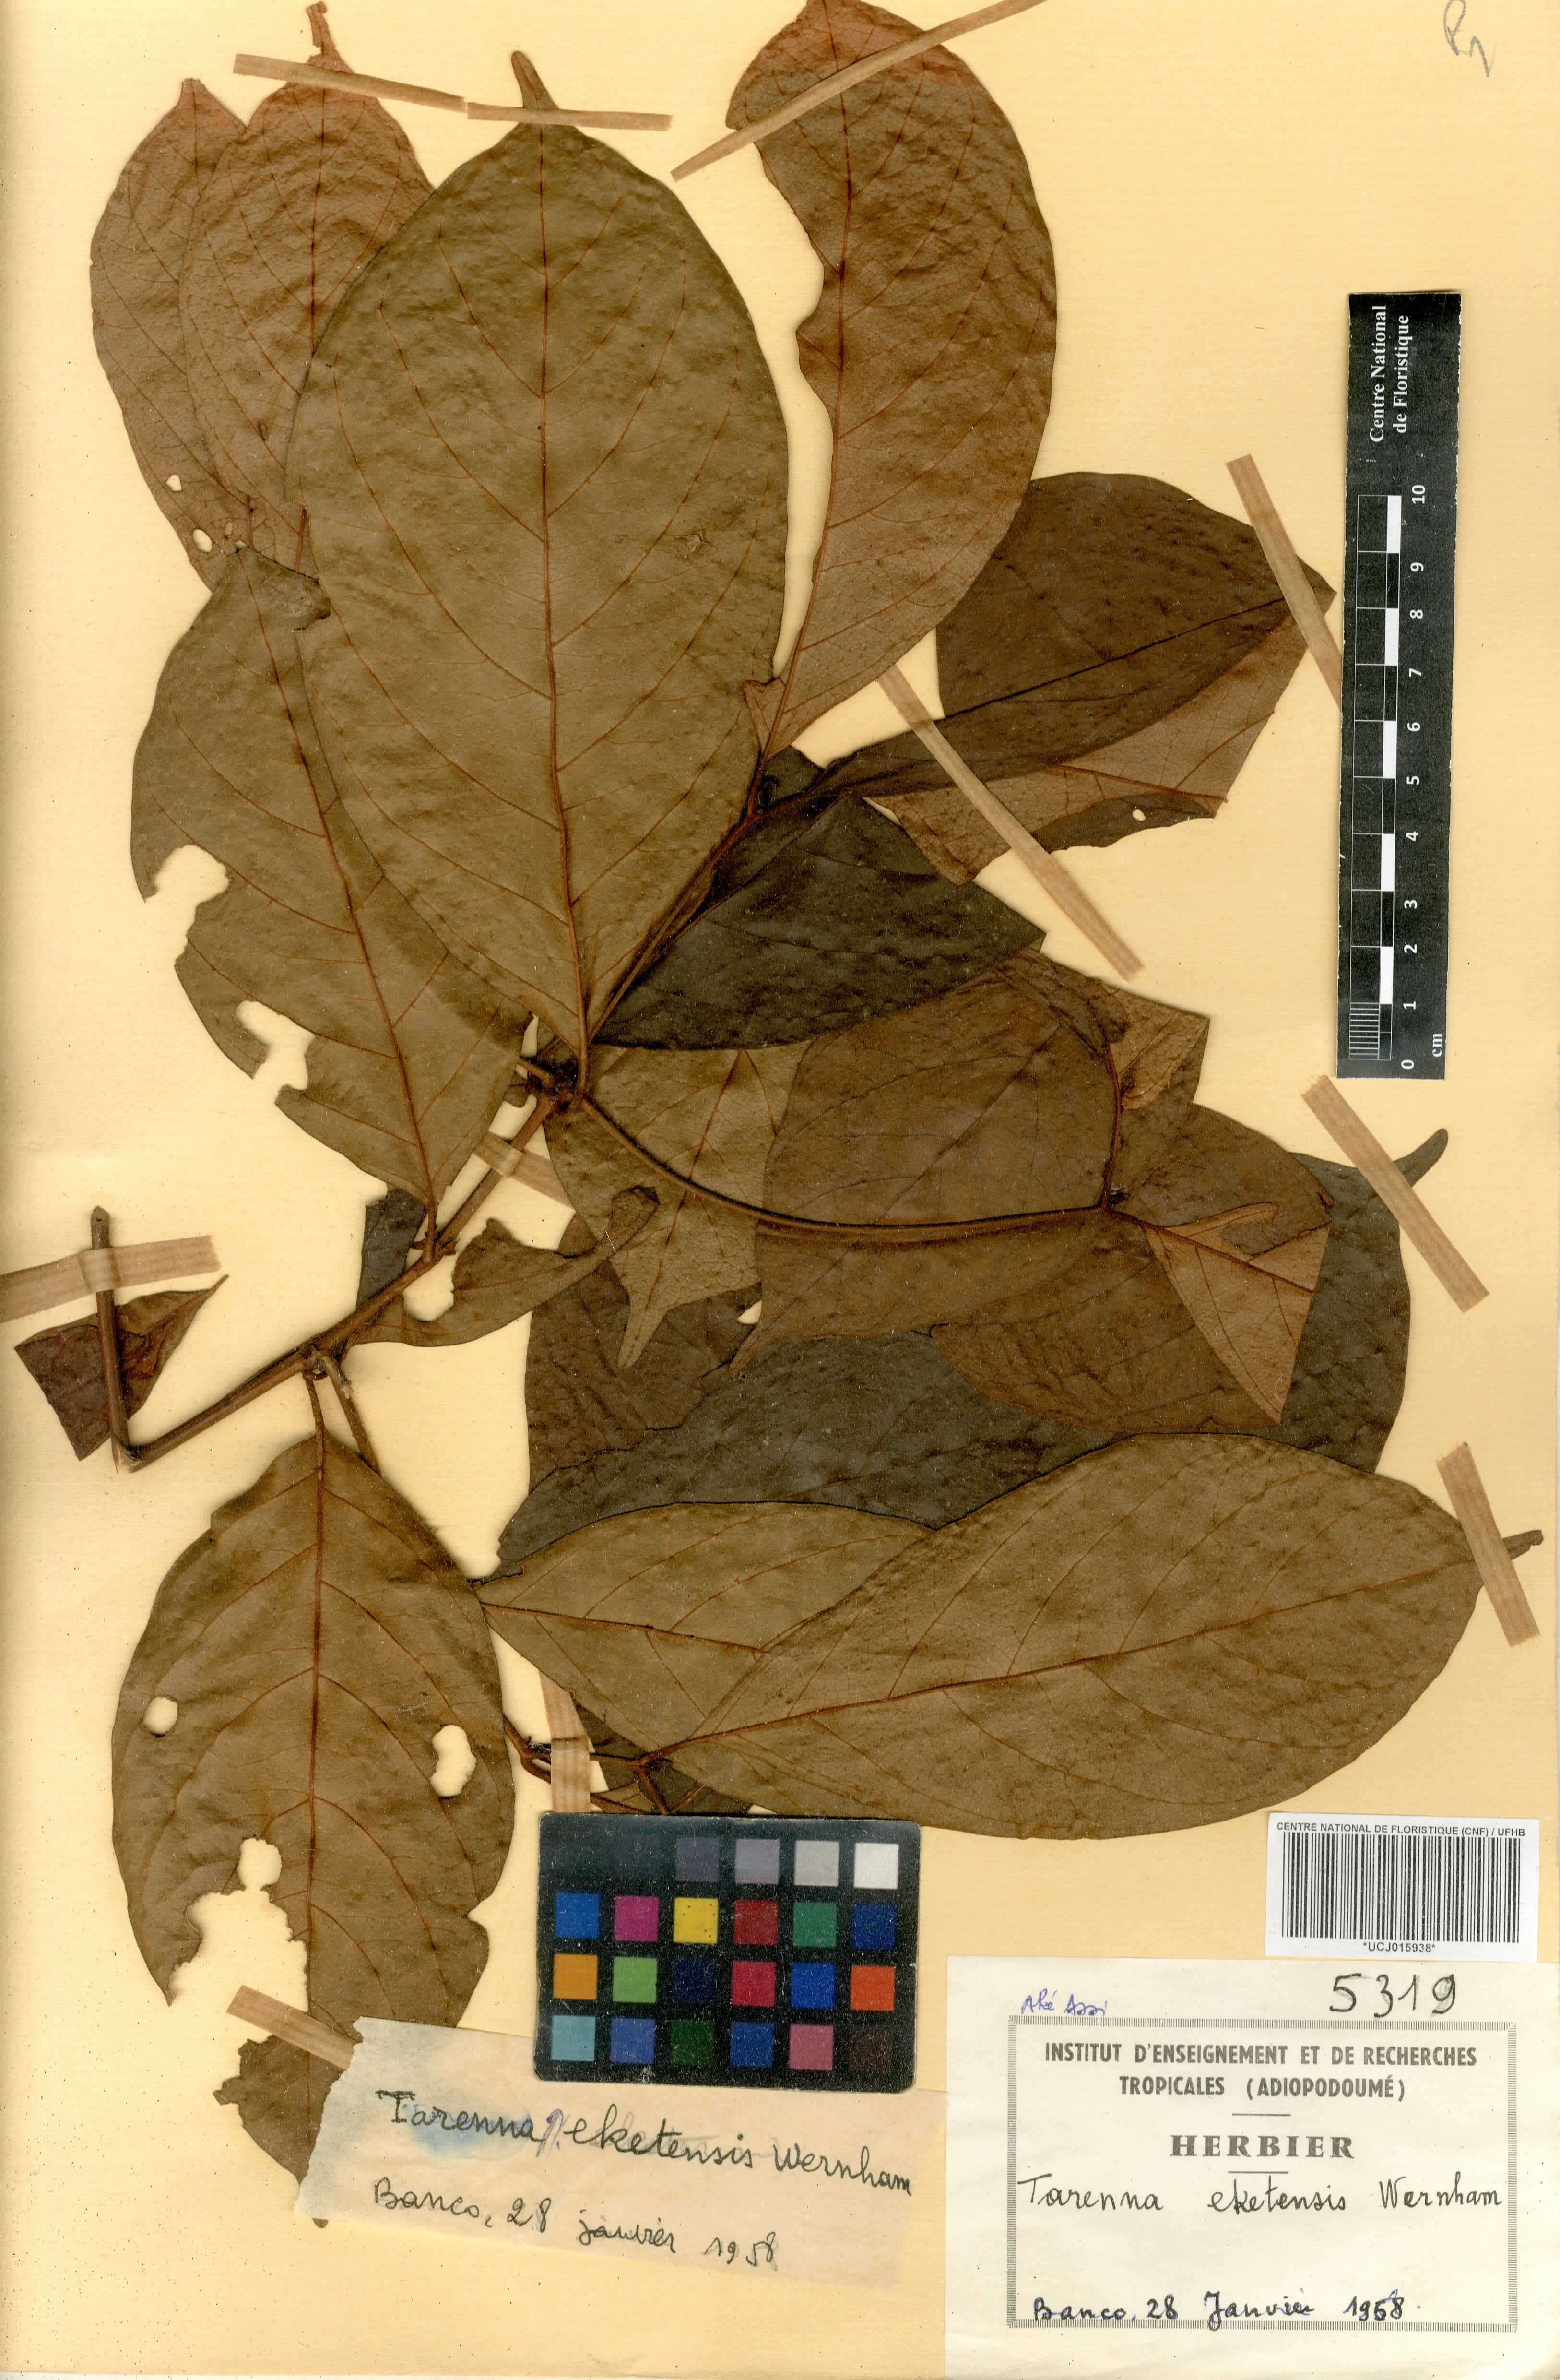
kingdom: Plantae
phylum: Tracheophyta
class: Magnoliopsida
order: Gentianales
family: Rubiaceae
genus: Tarenna
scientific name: Tarenna eketensis
